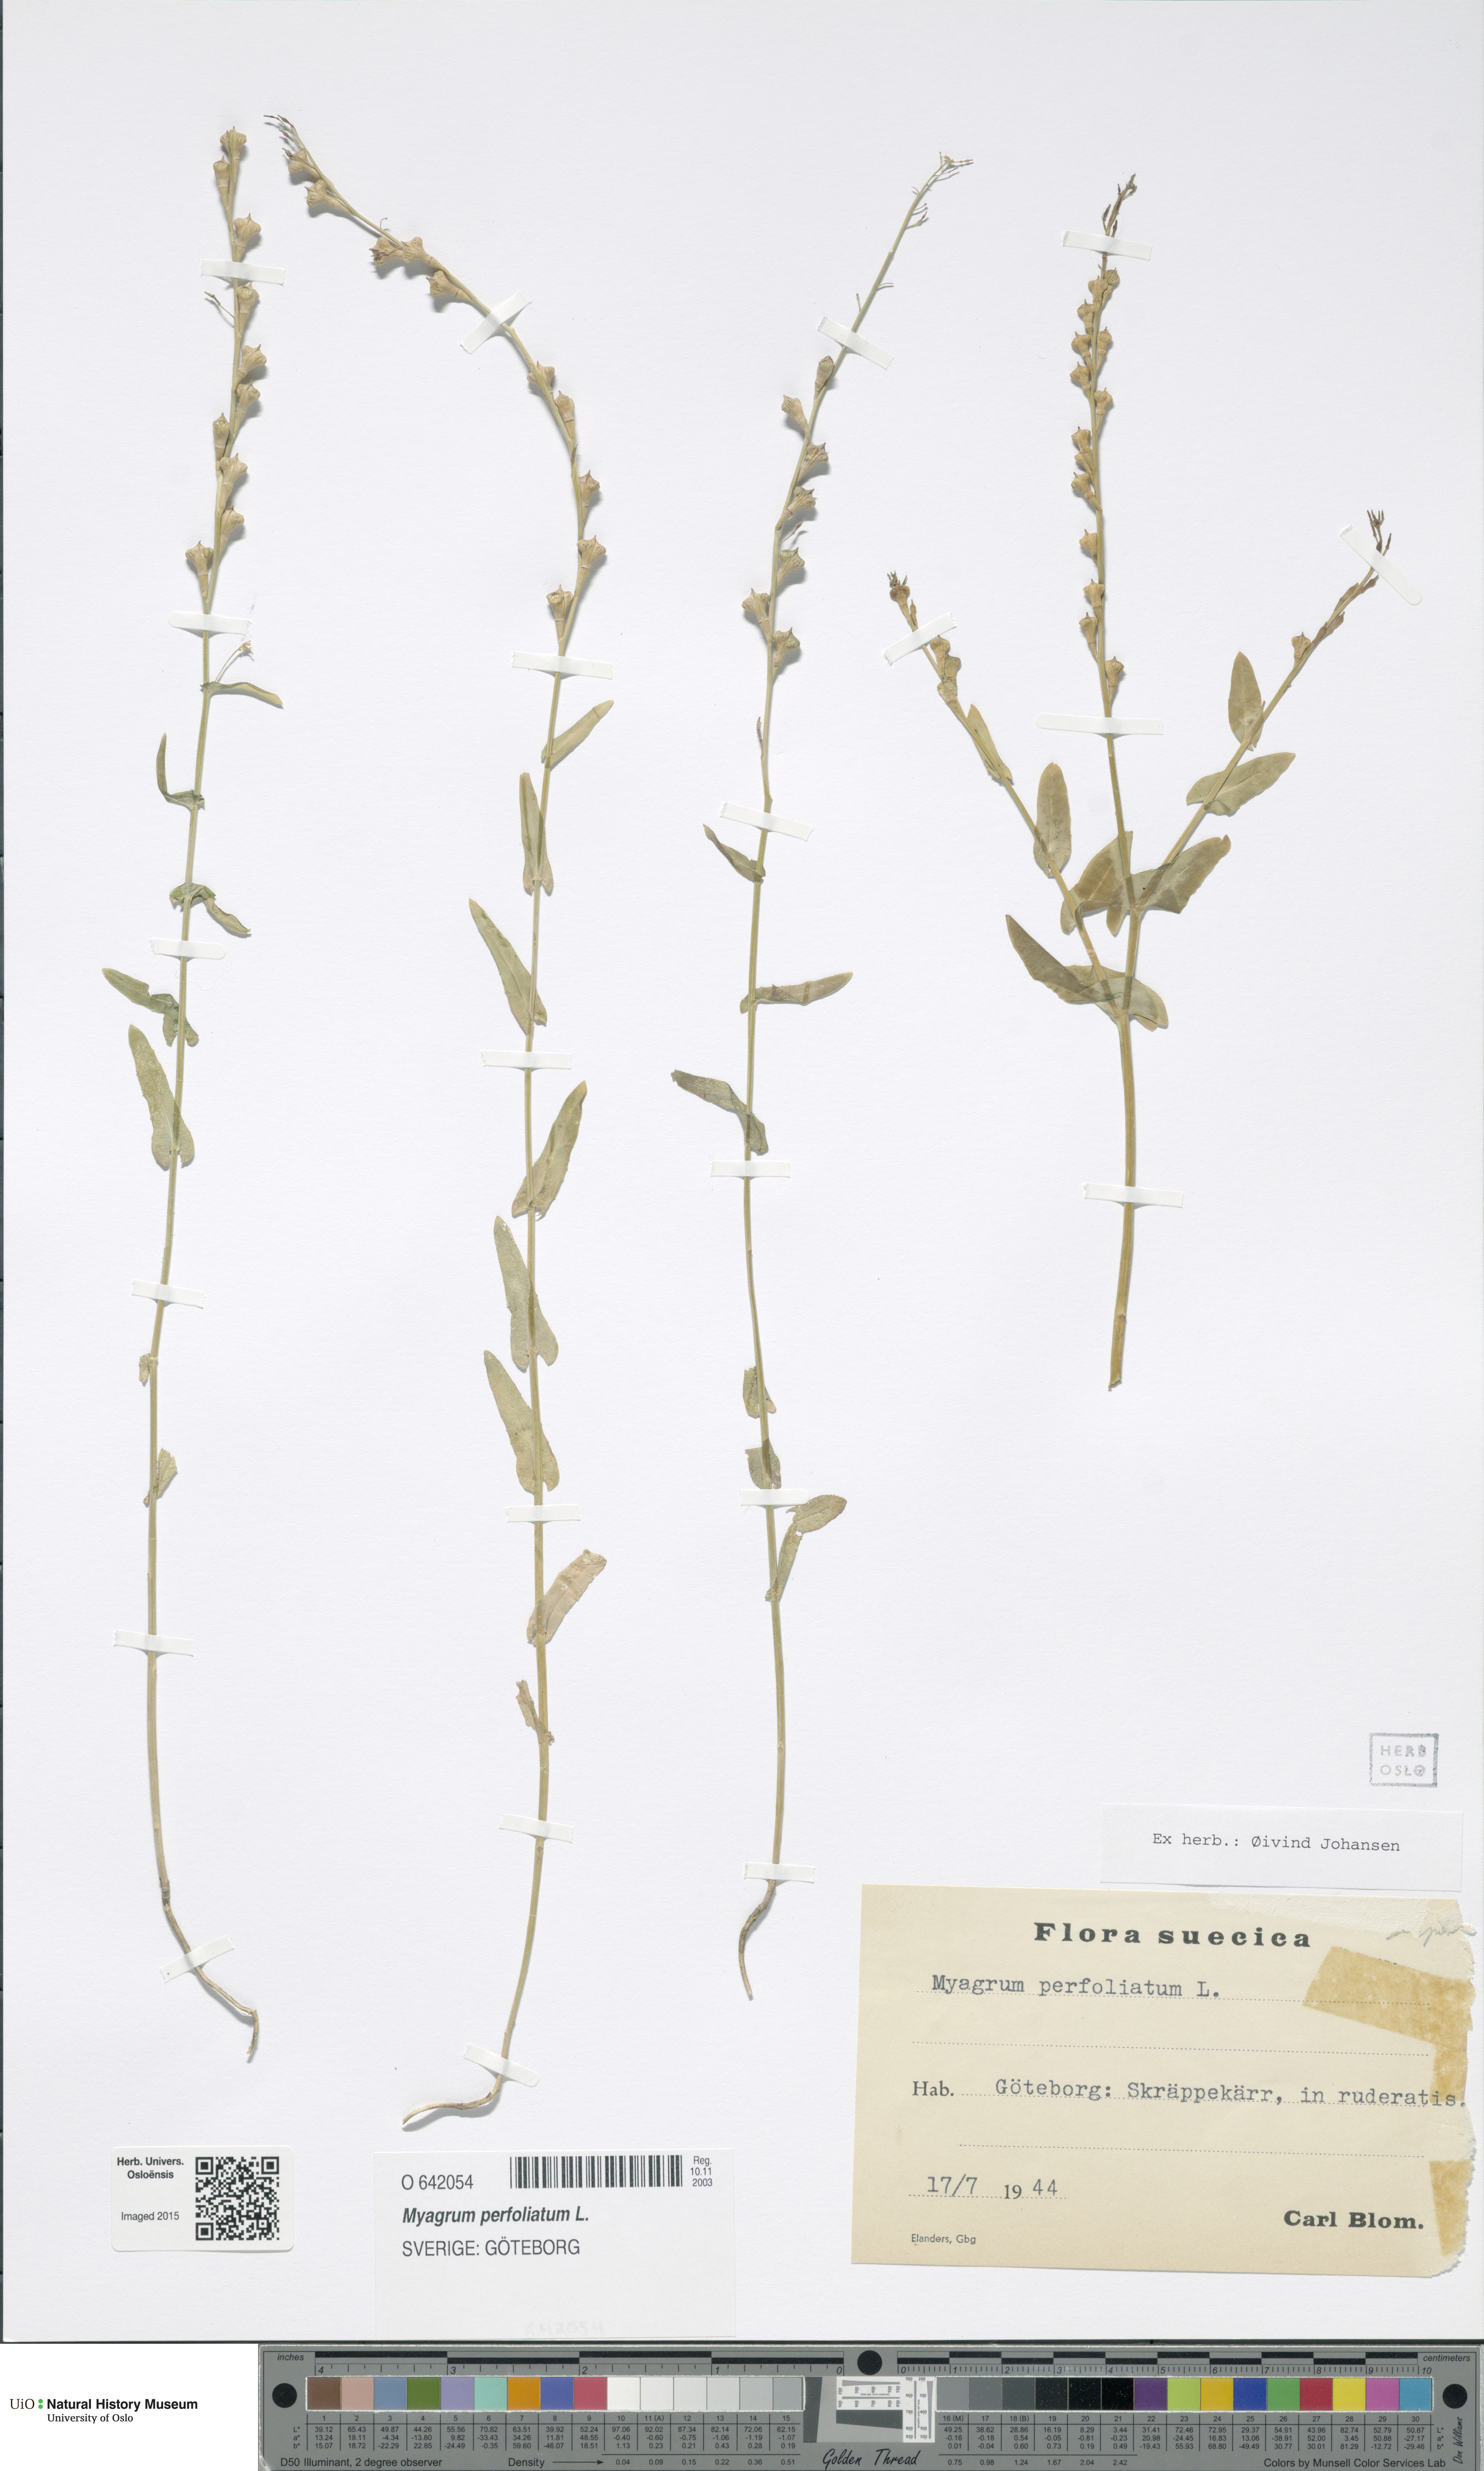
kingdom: Plantae
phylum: Tracheophyta
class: Magnoliopsida
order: Brassicales
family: Brassicaceae
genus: Myagrum
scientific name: Myagrum perfoliatum
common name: Mitre cress
